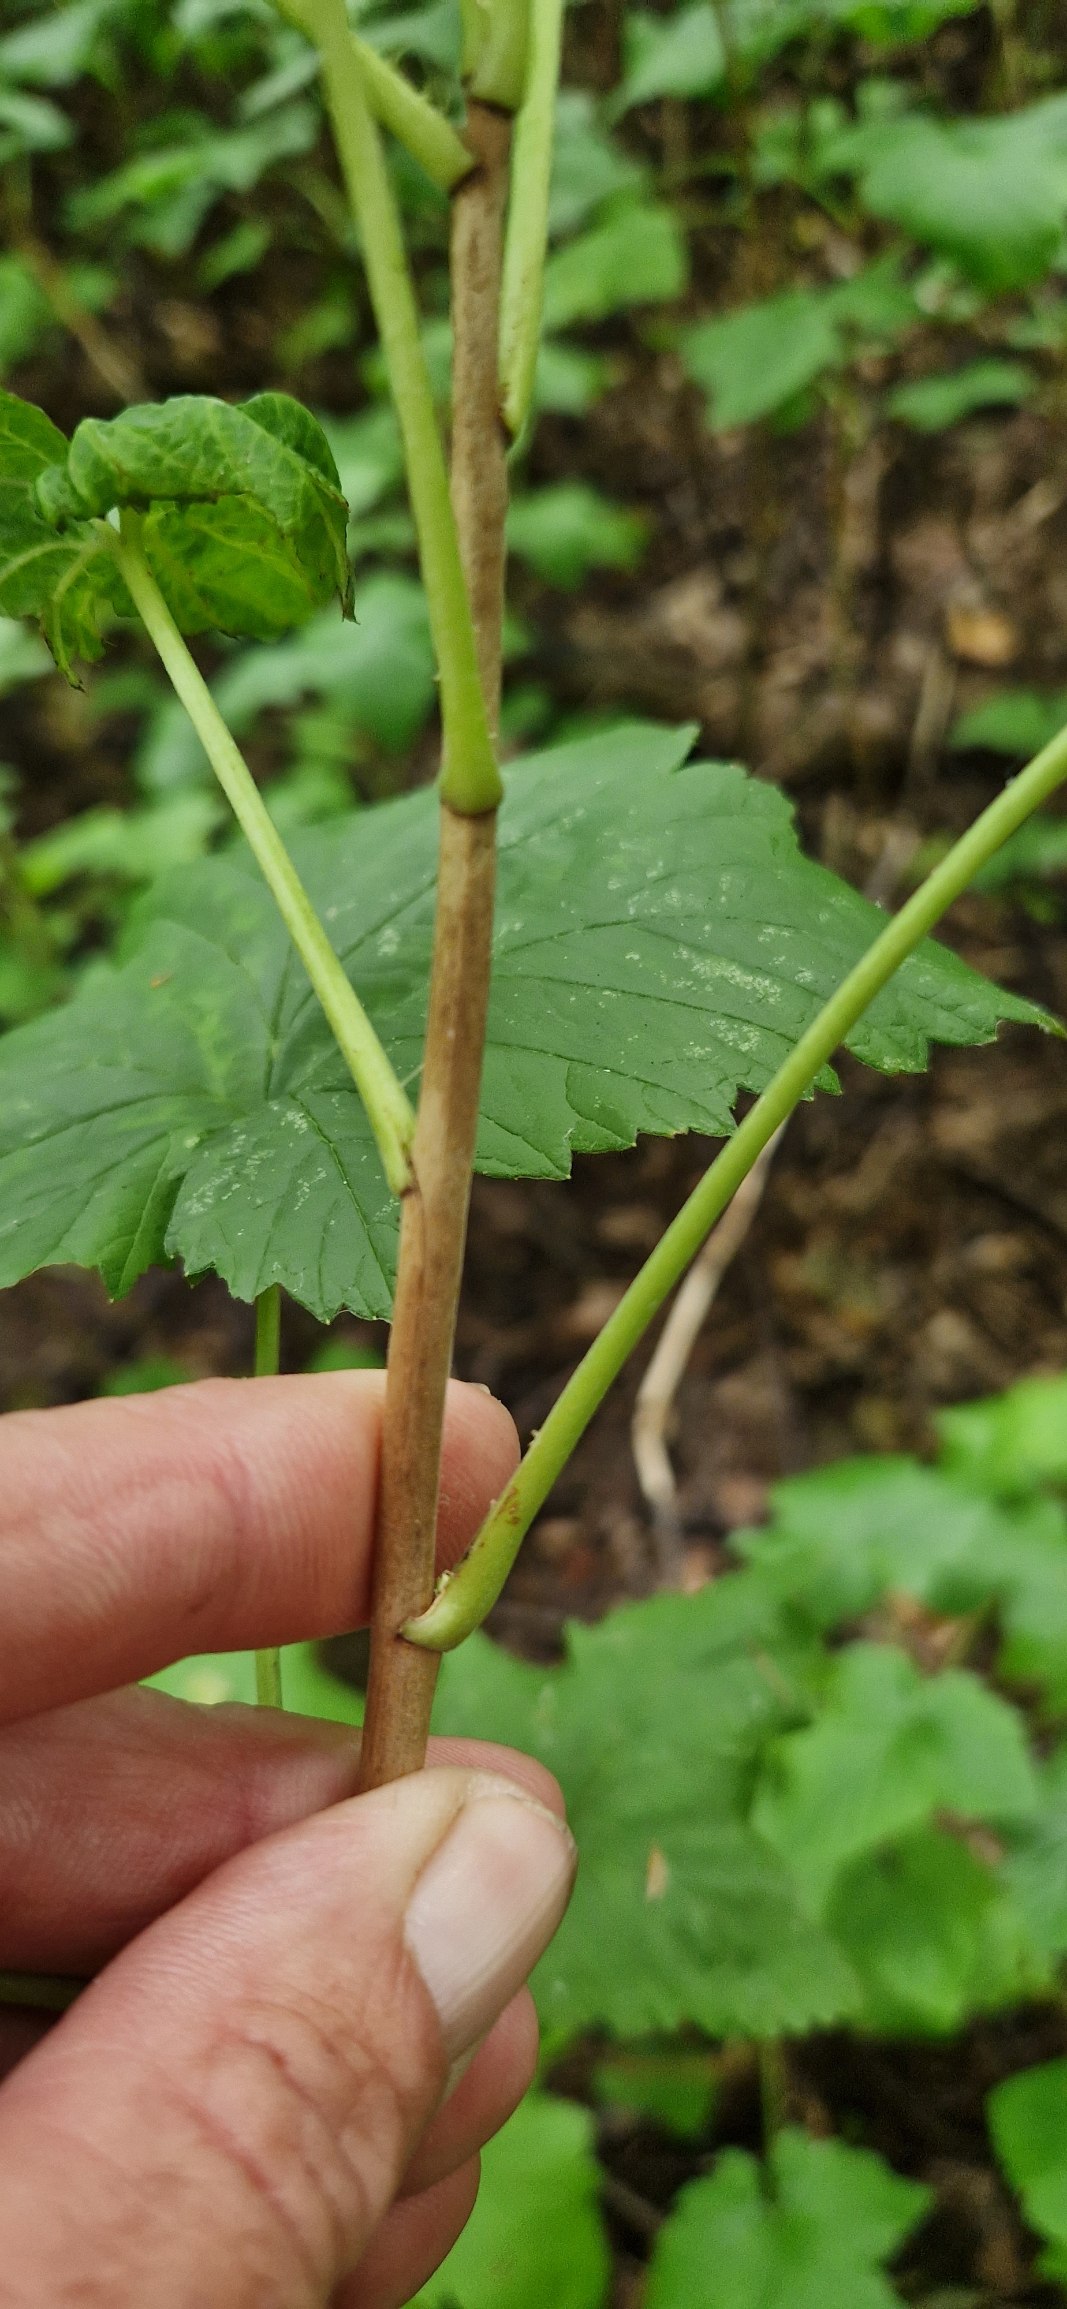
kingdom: Plantae
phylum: Tracheophyta
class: Magnoliopsida
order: Saxifragales
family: Grossulariaceae
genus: Ribes
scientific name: Ribes nigrum
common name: Solbær
